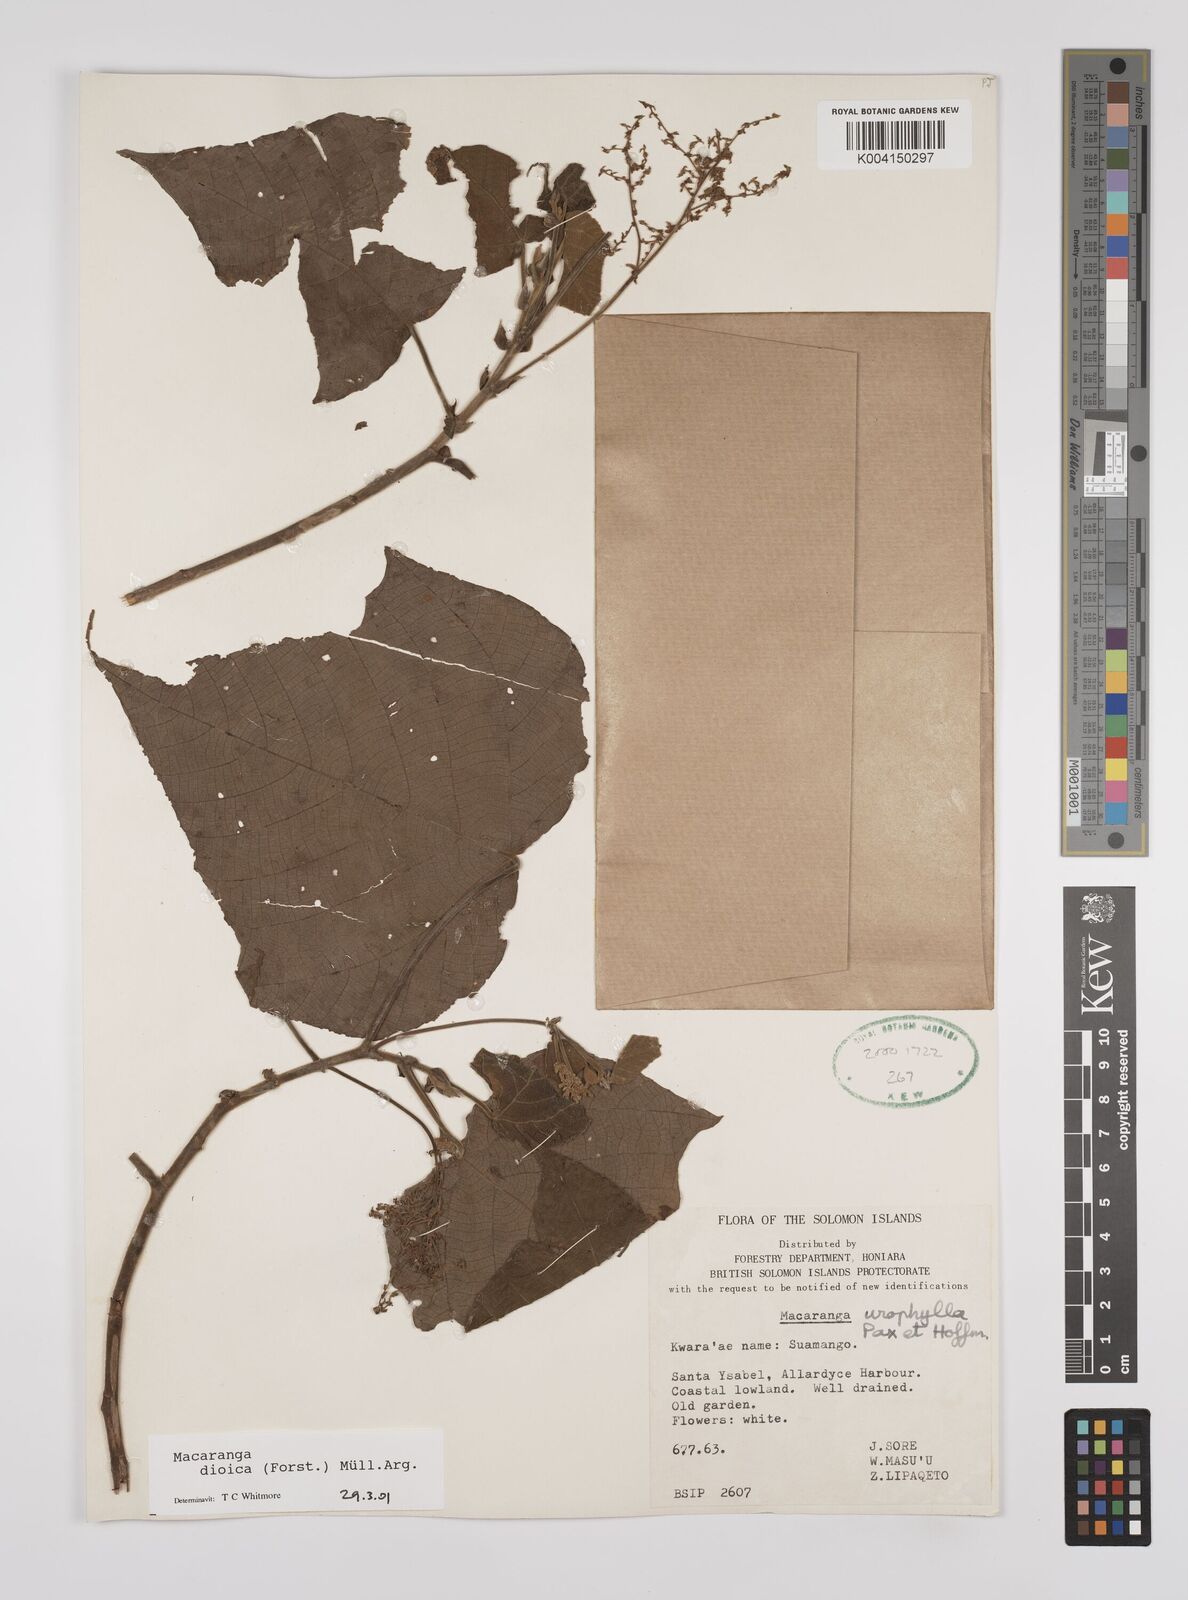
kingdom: Plantae
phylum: Tracheophyta
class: Magnoliopsida
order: Malpighiales
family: Euphorbiaceae
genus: Macaranga
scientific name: Macaranga dioica
